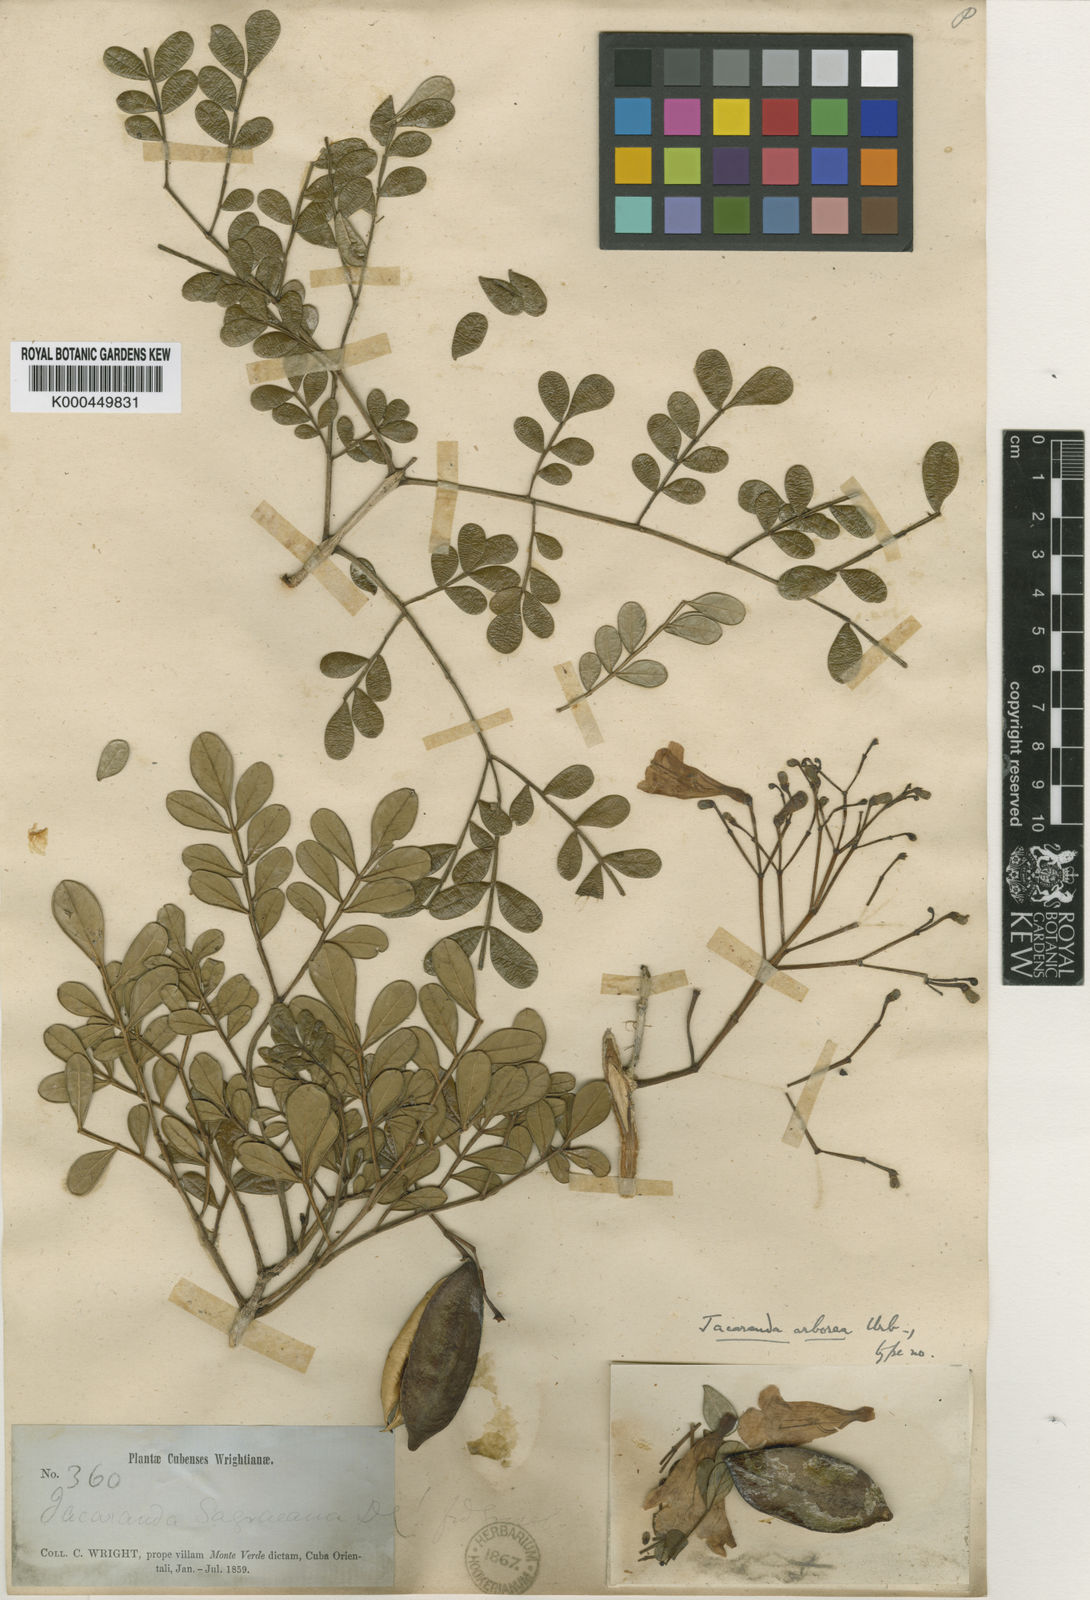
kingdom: Plantae
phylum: Tracheophyta
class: Magnoliopsida
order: Lamiales
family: Bignoniaceae
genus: Jacaranda
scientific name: Jacaranda arborea
